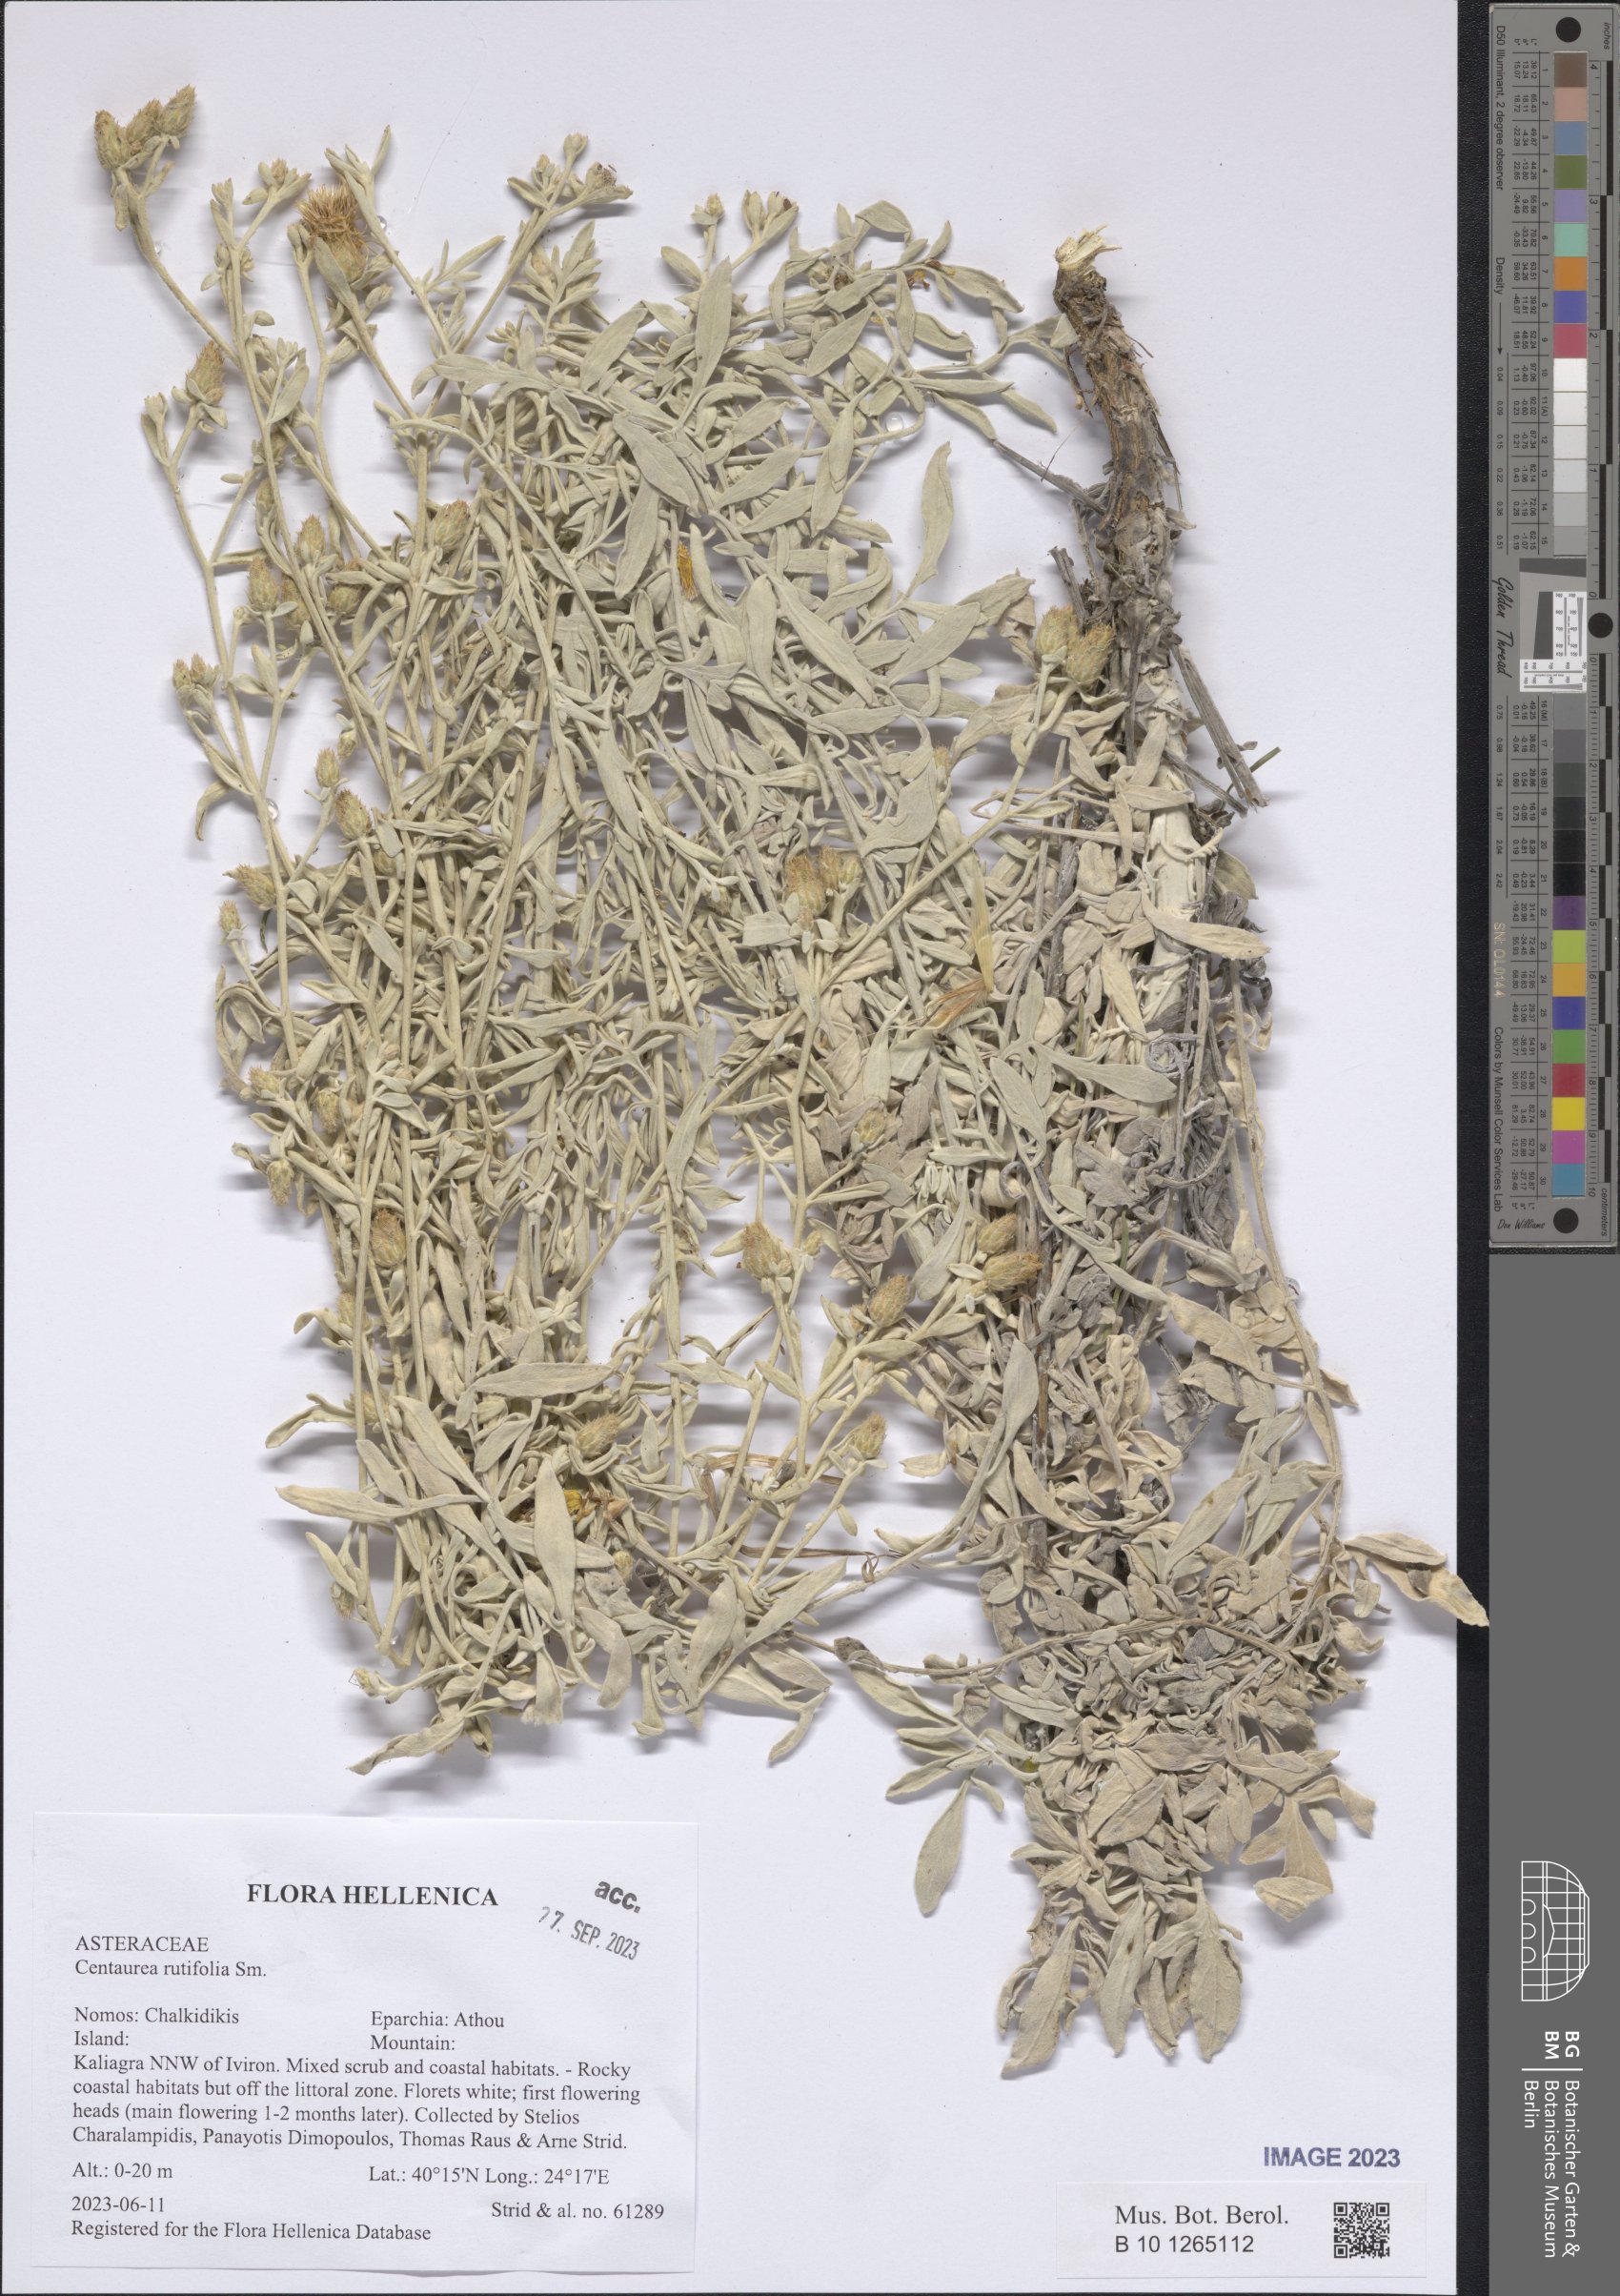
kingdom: Plantae
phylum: Tracheophyta
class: Magnoliopsida
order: Asterales
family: Asteraceae
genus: Centaurea
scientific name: Centaurea rutifolia
